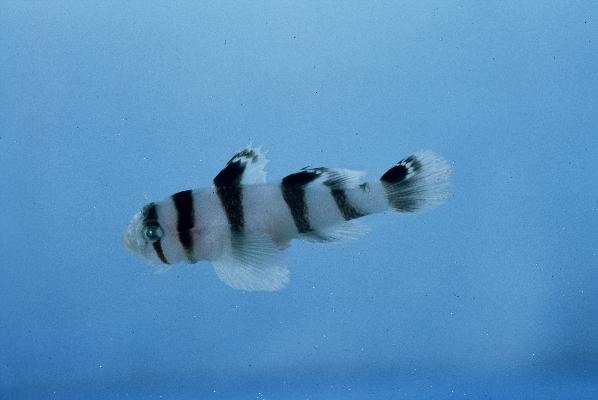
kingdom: Animalia
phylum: Chordata
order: Perciformes
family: Gobiidae
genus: Priolepis
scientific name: Priolepis nocturna
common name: Blackbarred reefgoby
